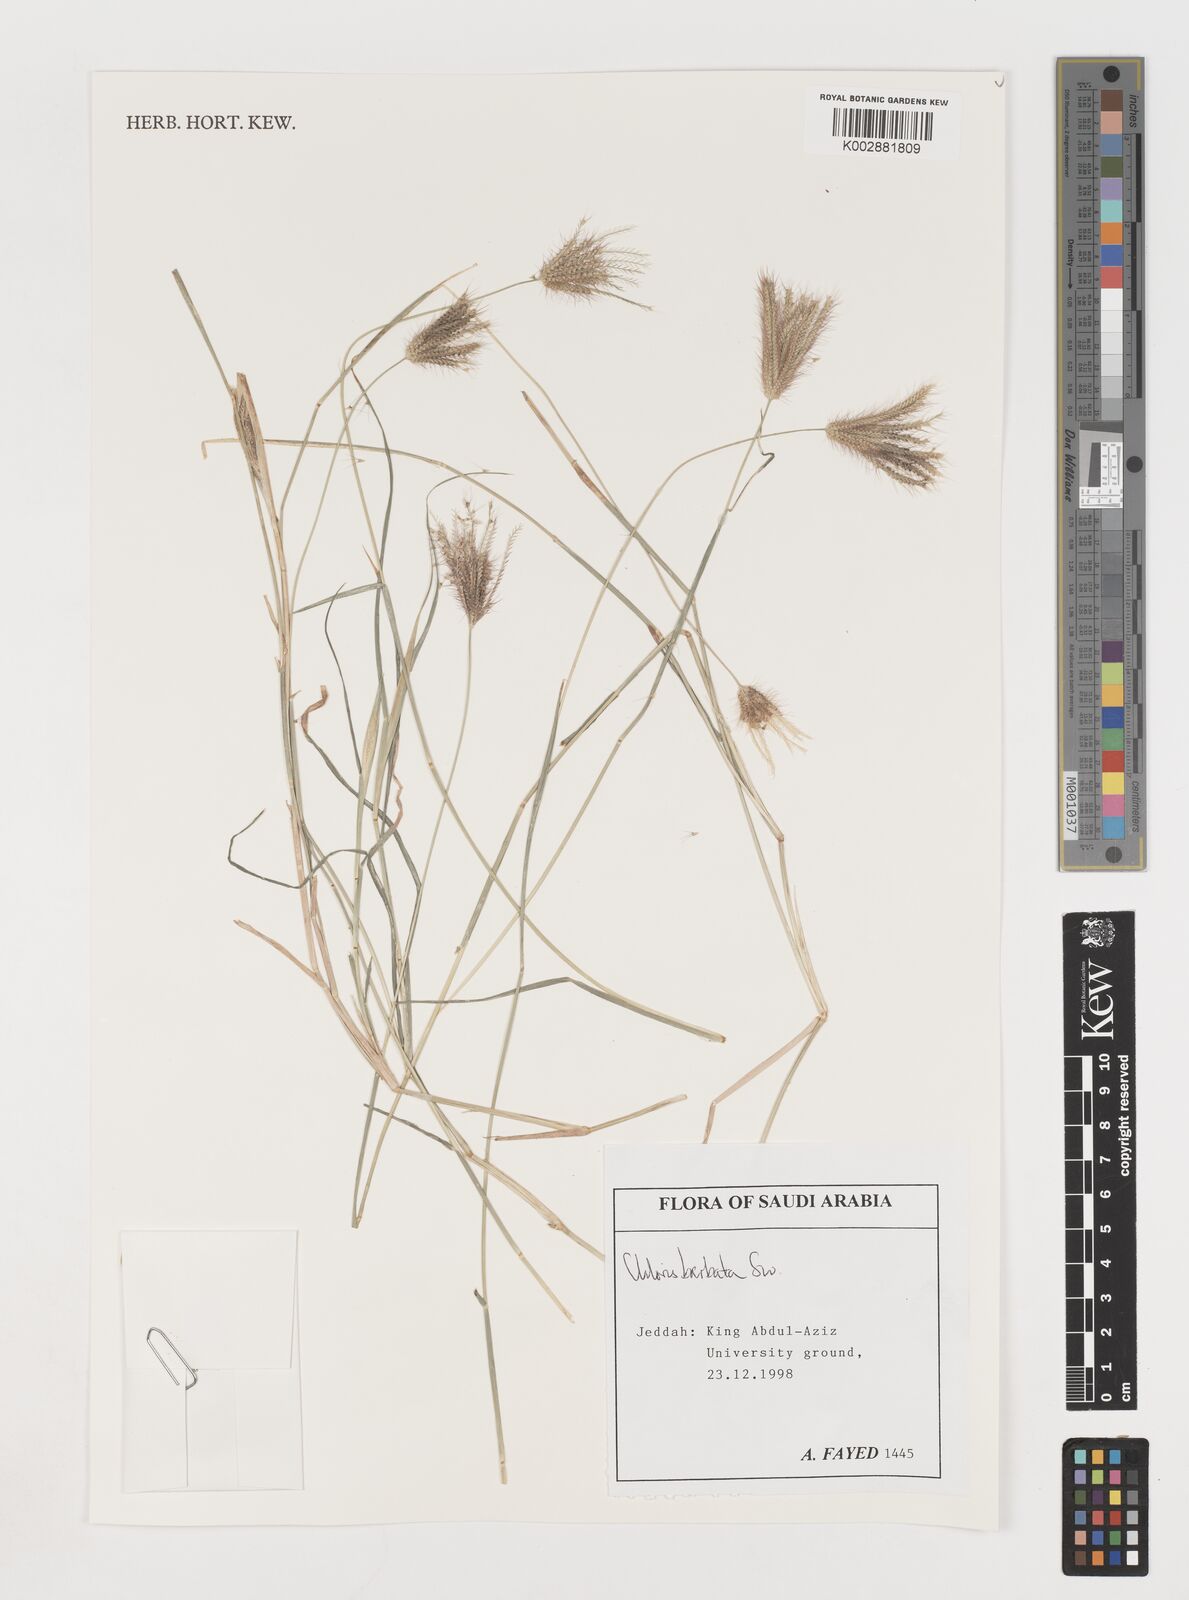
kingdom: Plantae
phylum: Tracheophyta
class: Liliopsida
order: Poales
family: Poaceae
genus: Chloris
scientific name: Chloris barbata
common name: Swollen fingergrass
